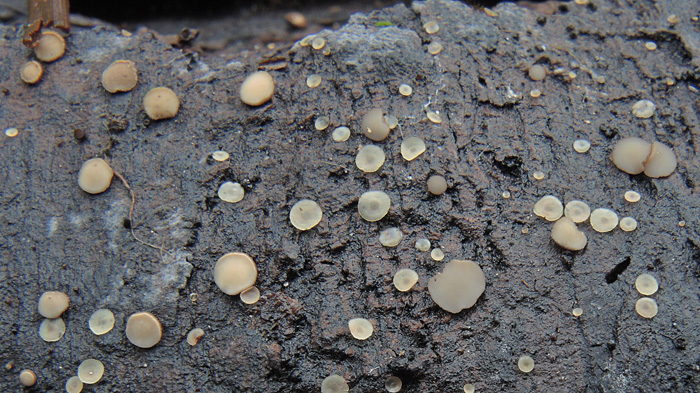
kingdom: Fungi
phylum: Ascomycota
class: Leotiomycetes
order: Helotiales
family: Tricladiaceae
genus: Graddonia
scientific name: Graddonia coracina
